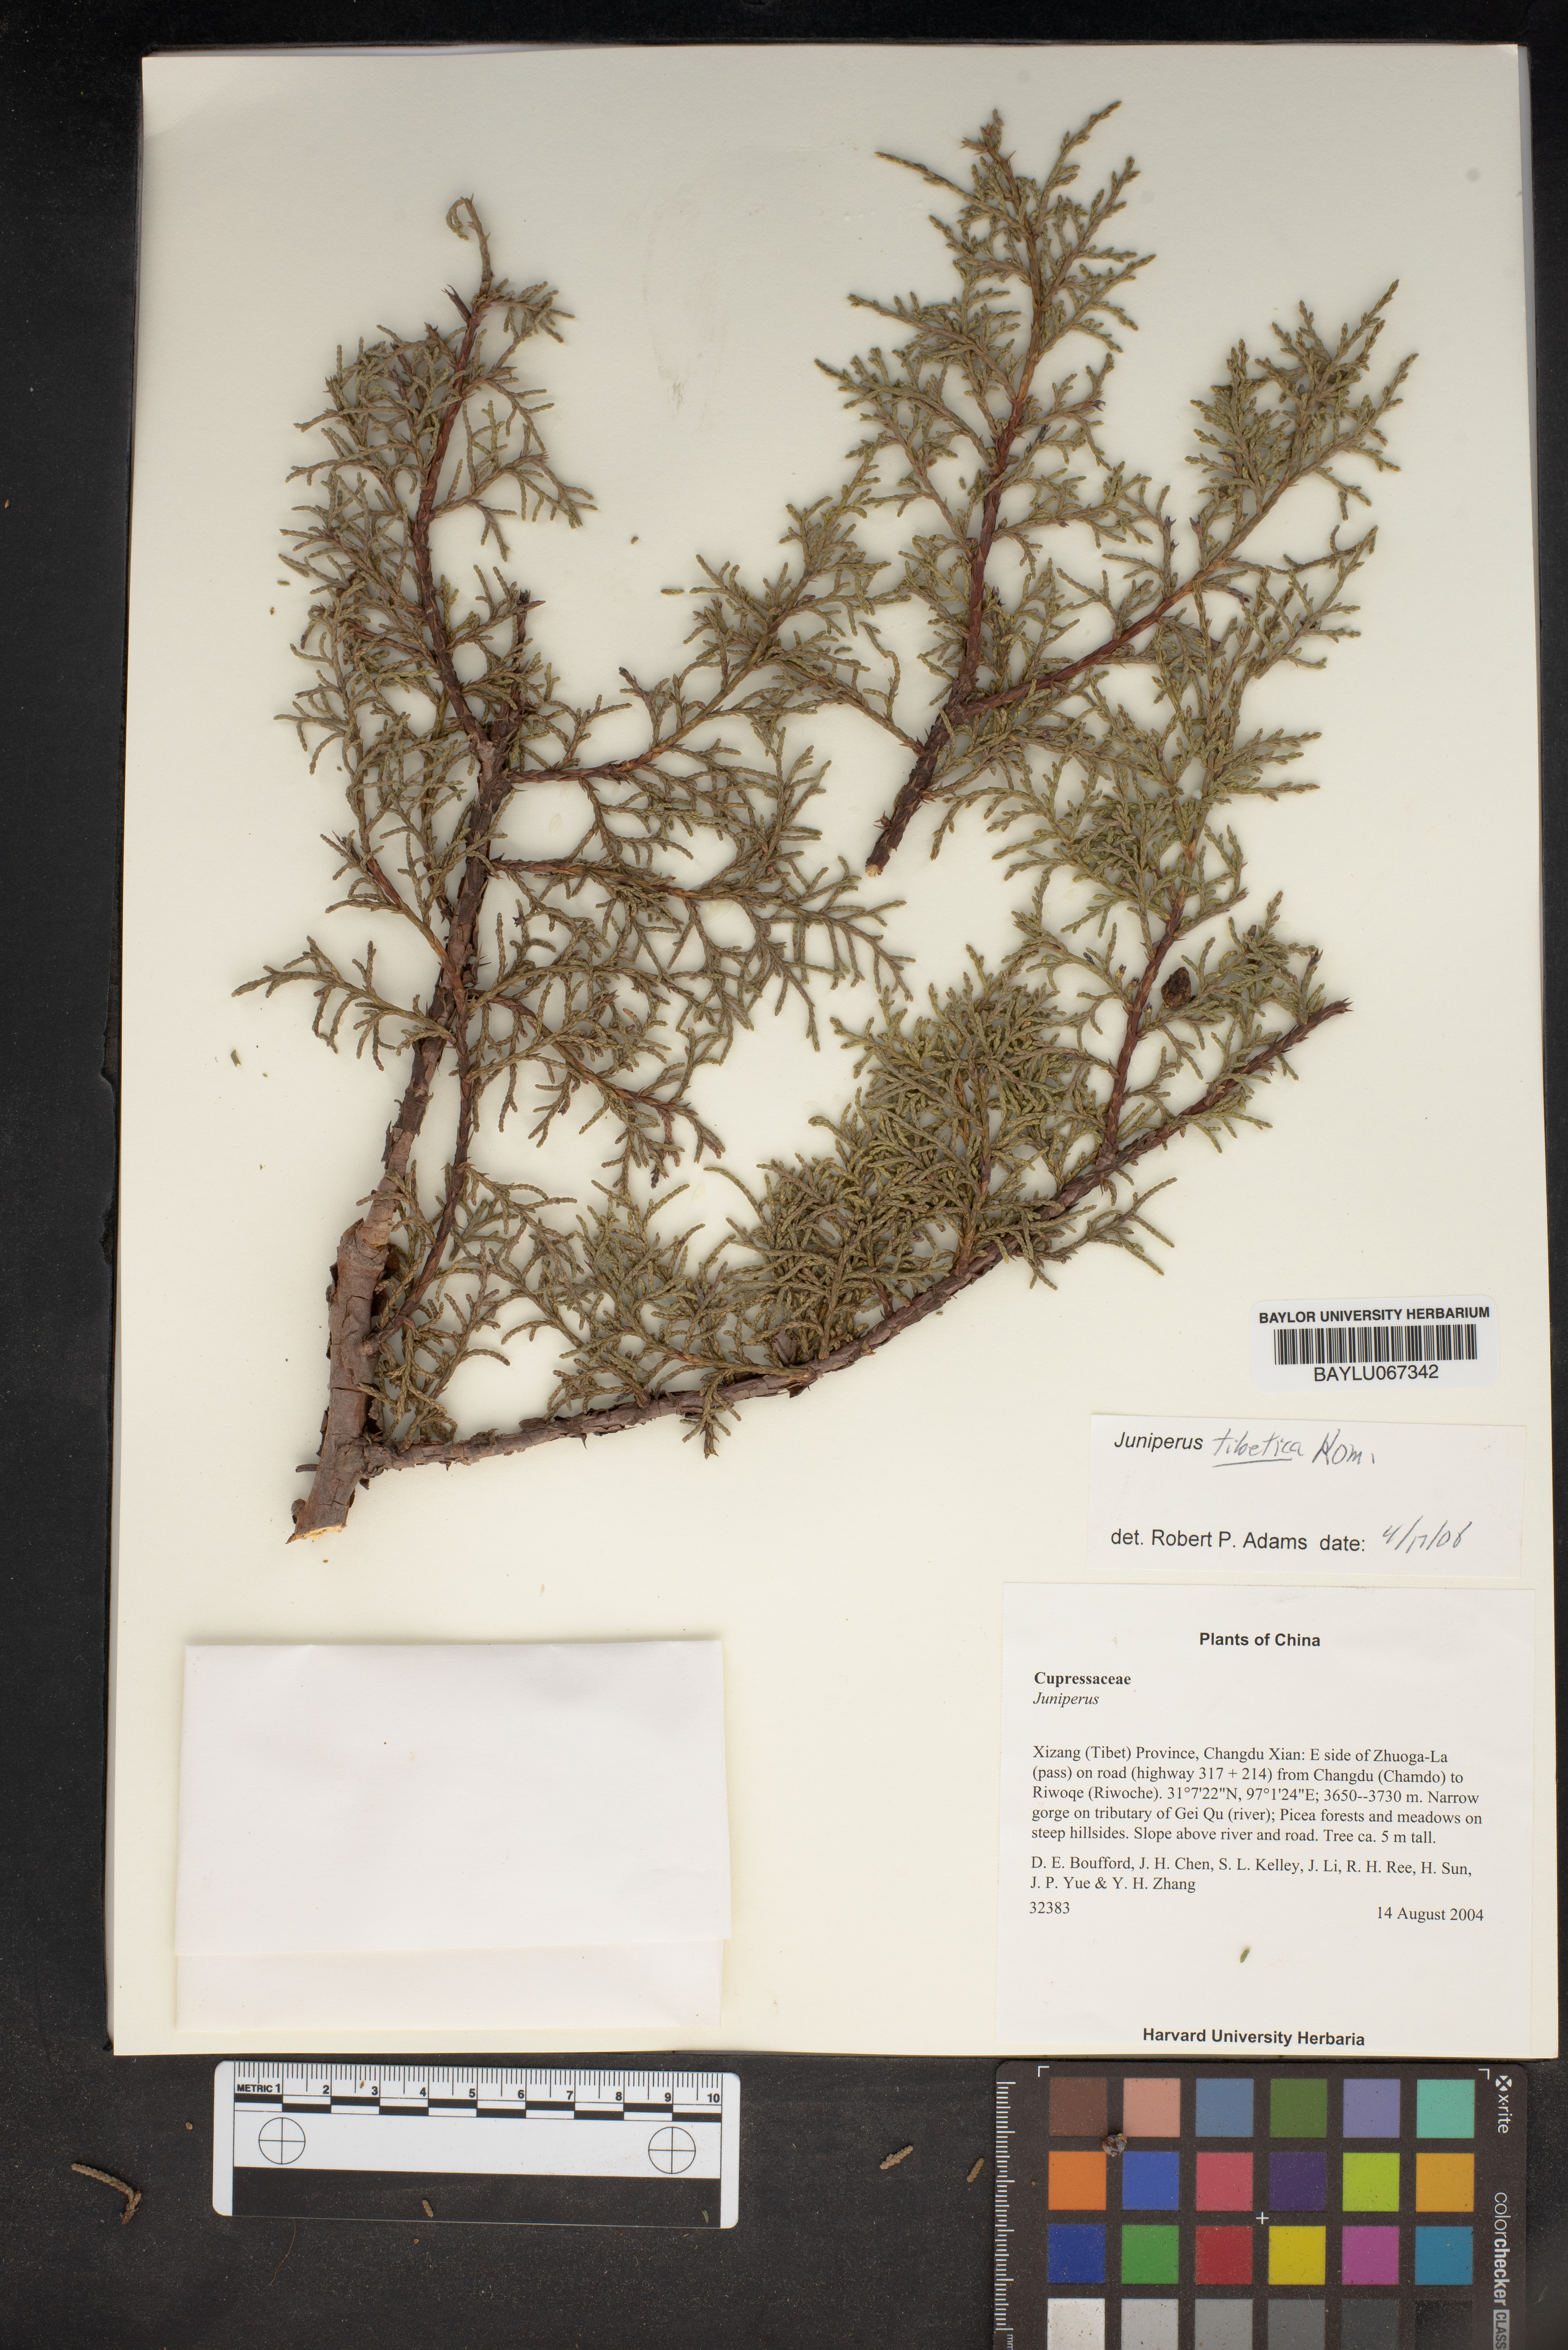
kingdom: Plantae
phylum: Tracheophyta
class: Pinopsida
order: Pinales
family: Cupressaceae
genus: Juniperus
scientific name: Juniperus tibetica
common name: Tibetan juniper
